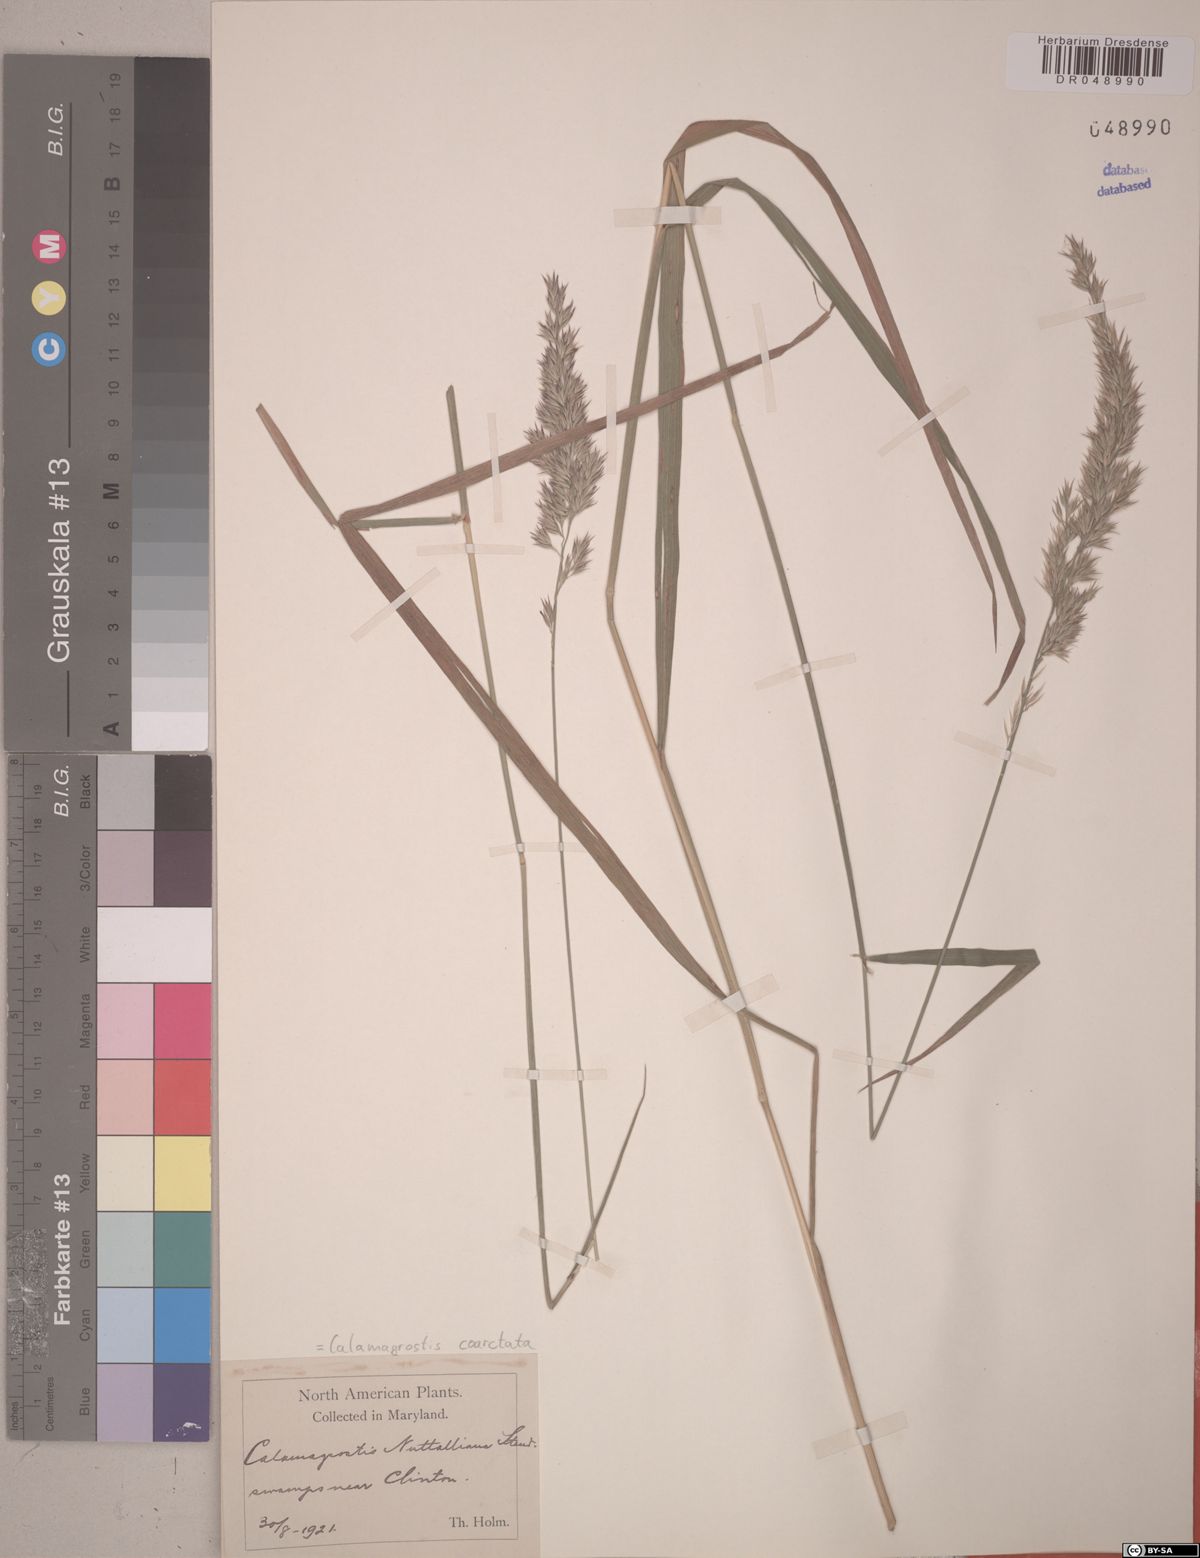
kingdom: Plantae
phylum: Tracheophyta
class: Liliopsida
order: Poales
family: Poaceae
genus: Greeneochloa
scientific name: Greeneochloa coarctata
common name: Small reedgrass
